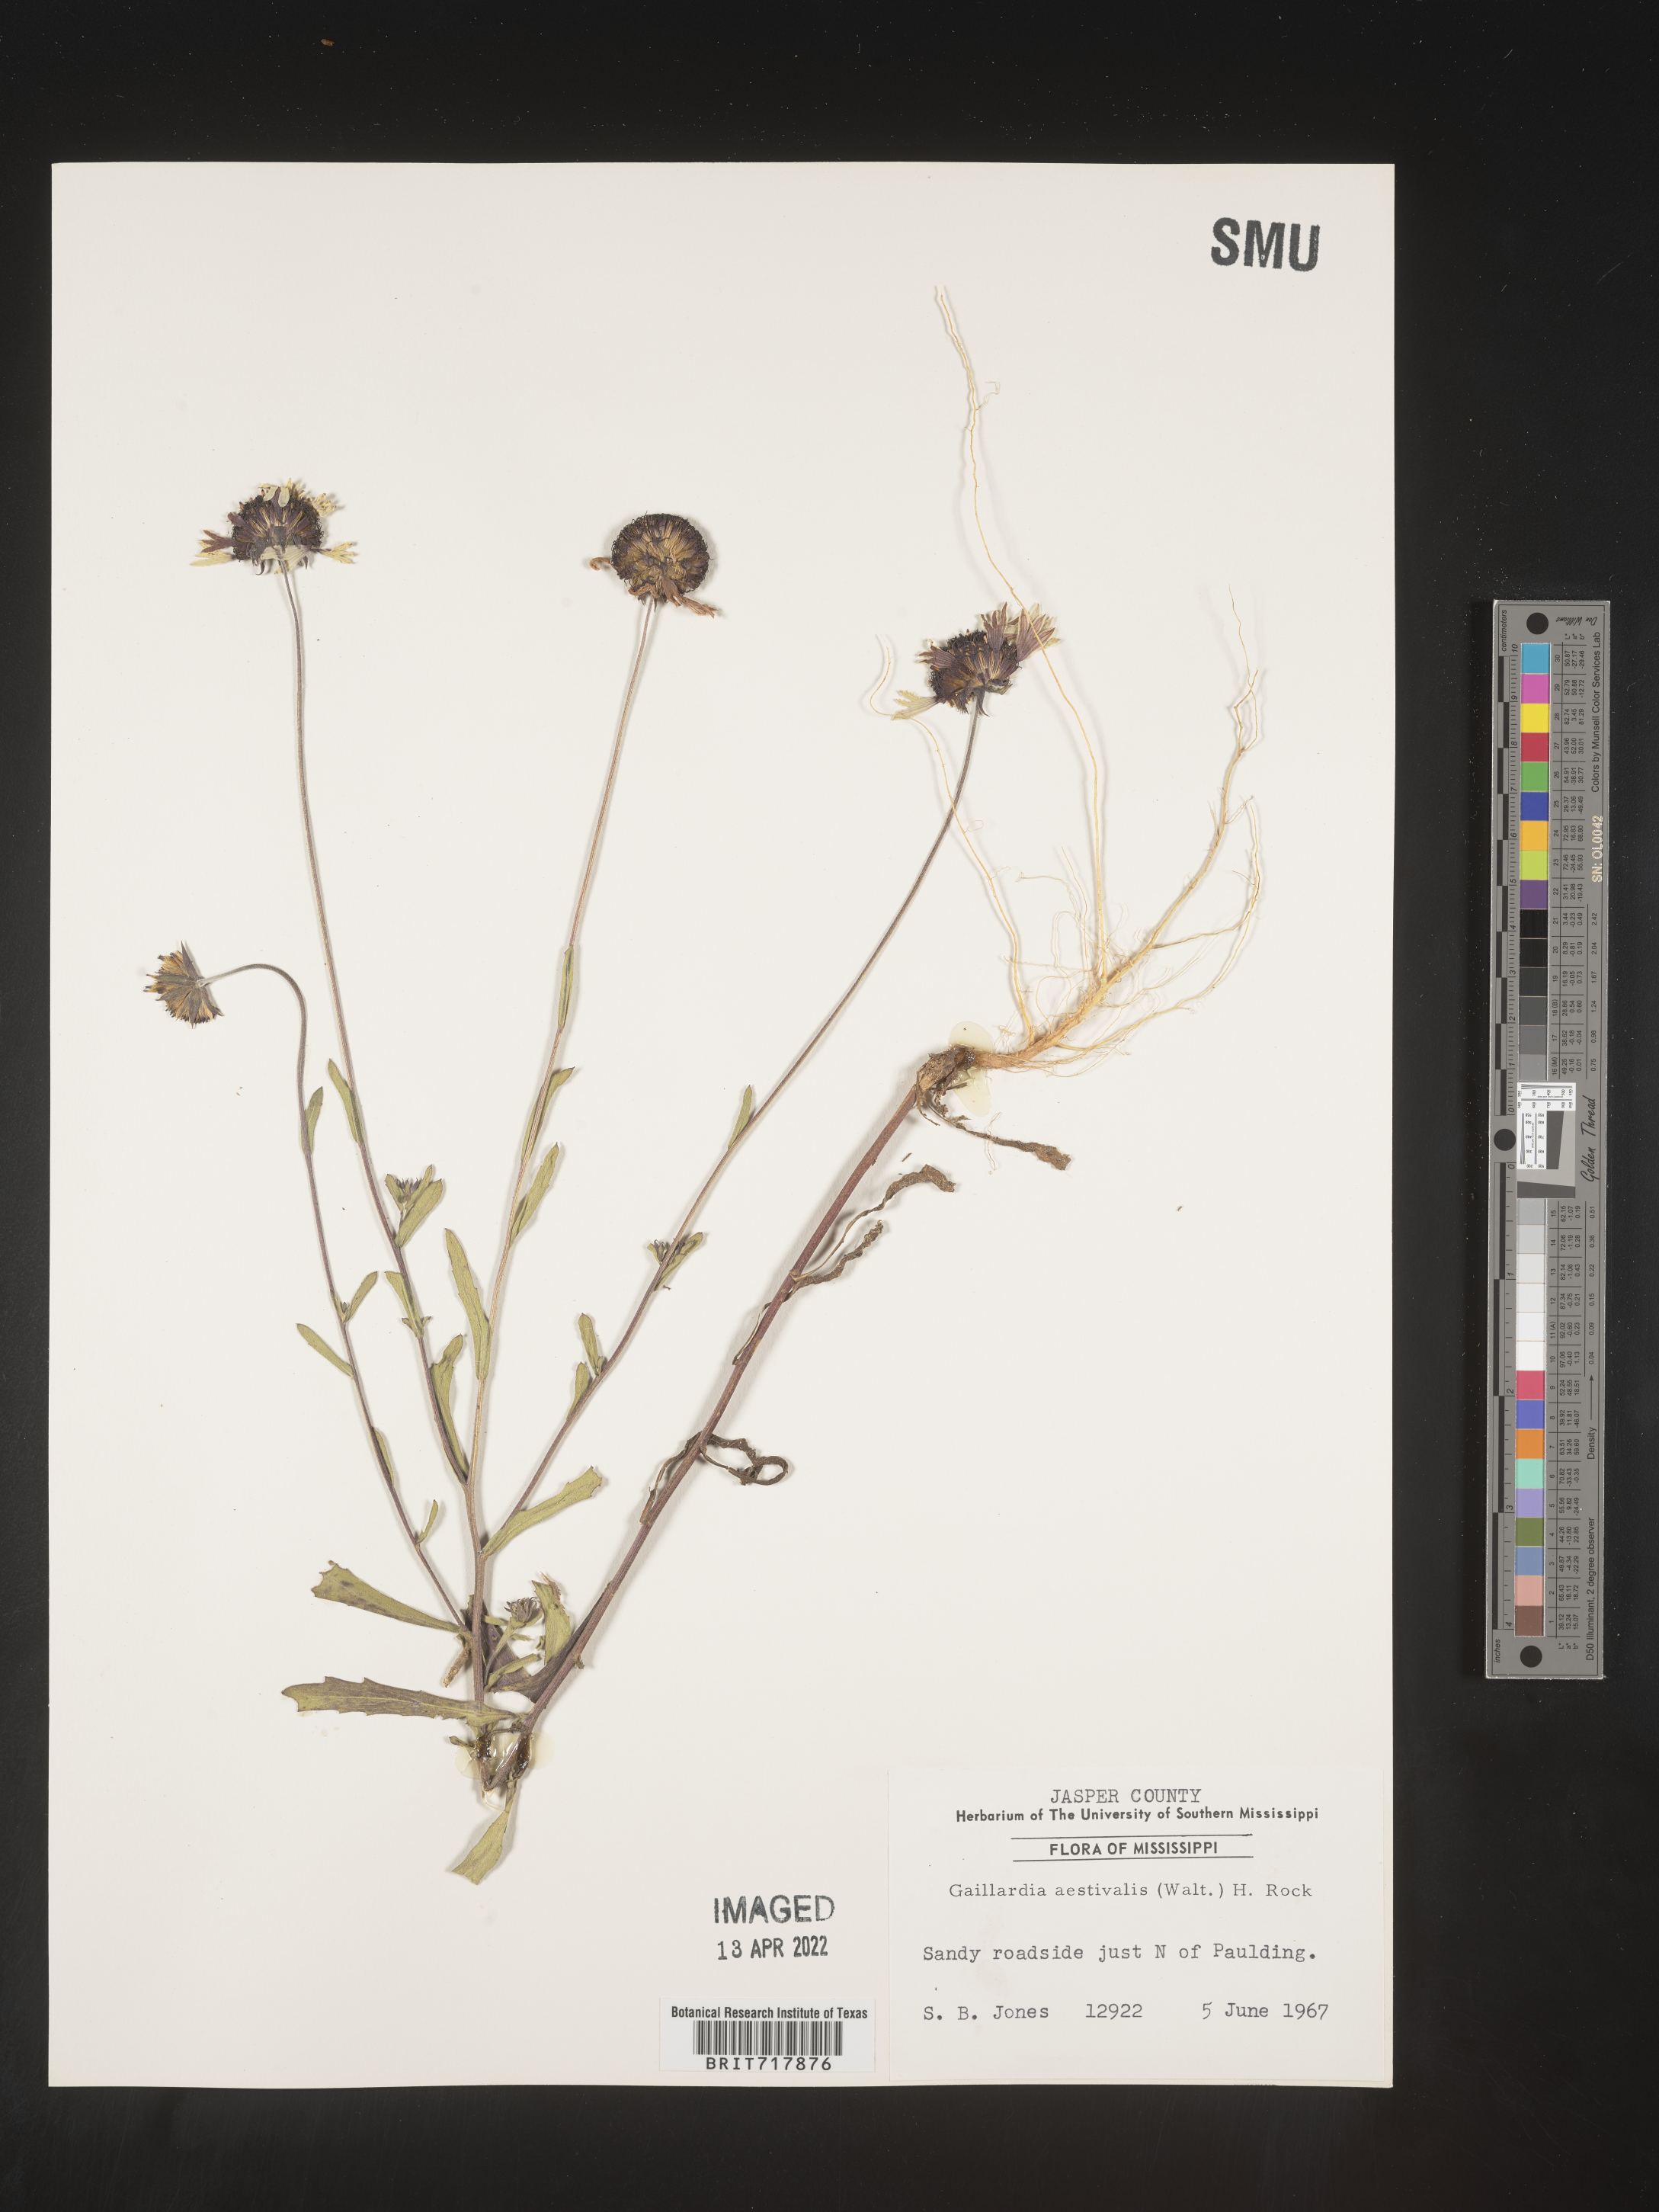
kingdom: Plantae
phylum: Tracheophyta
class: Magnoliopsida
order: Asterales
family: Asteraceae
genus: Gaillardia
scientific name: Gaillardia aestivalis
